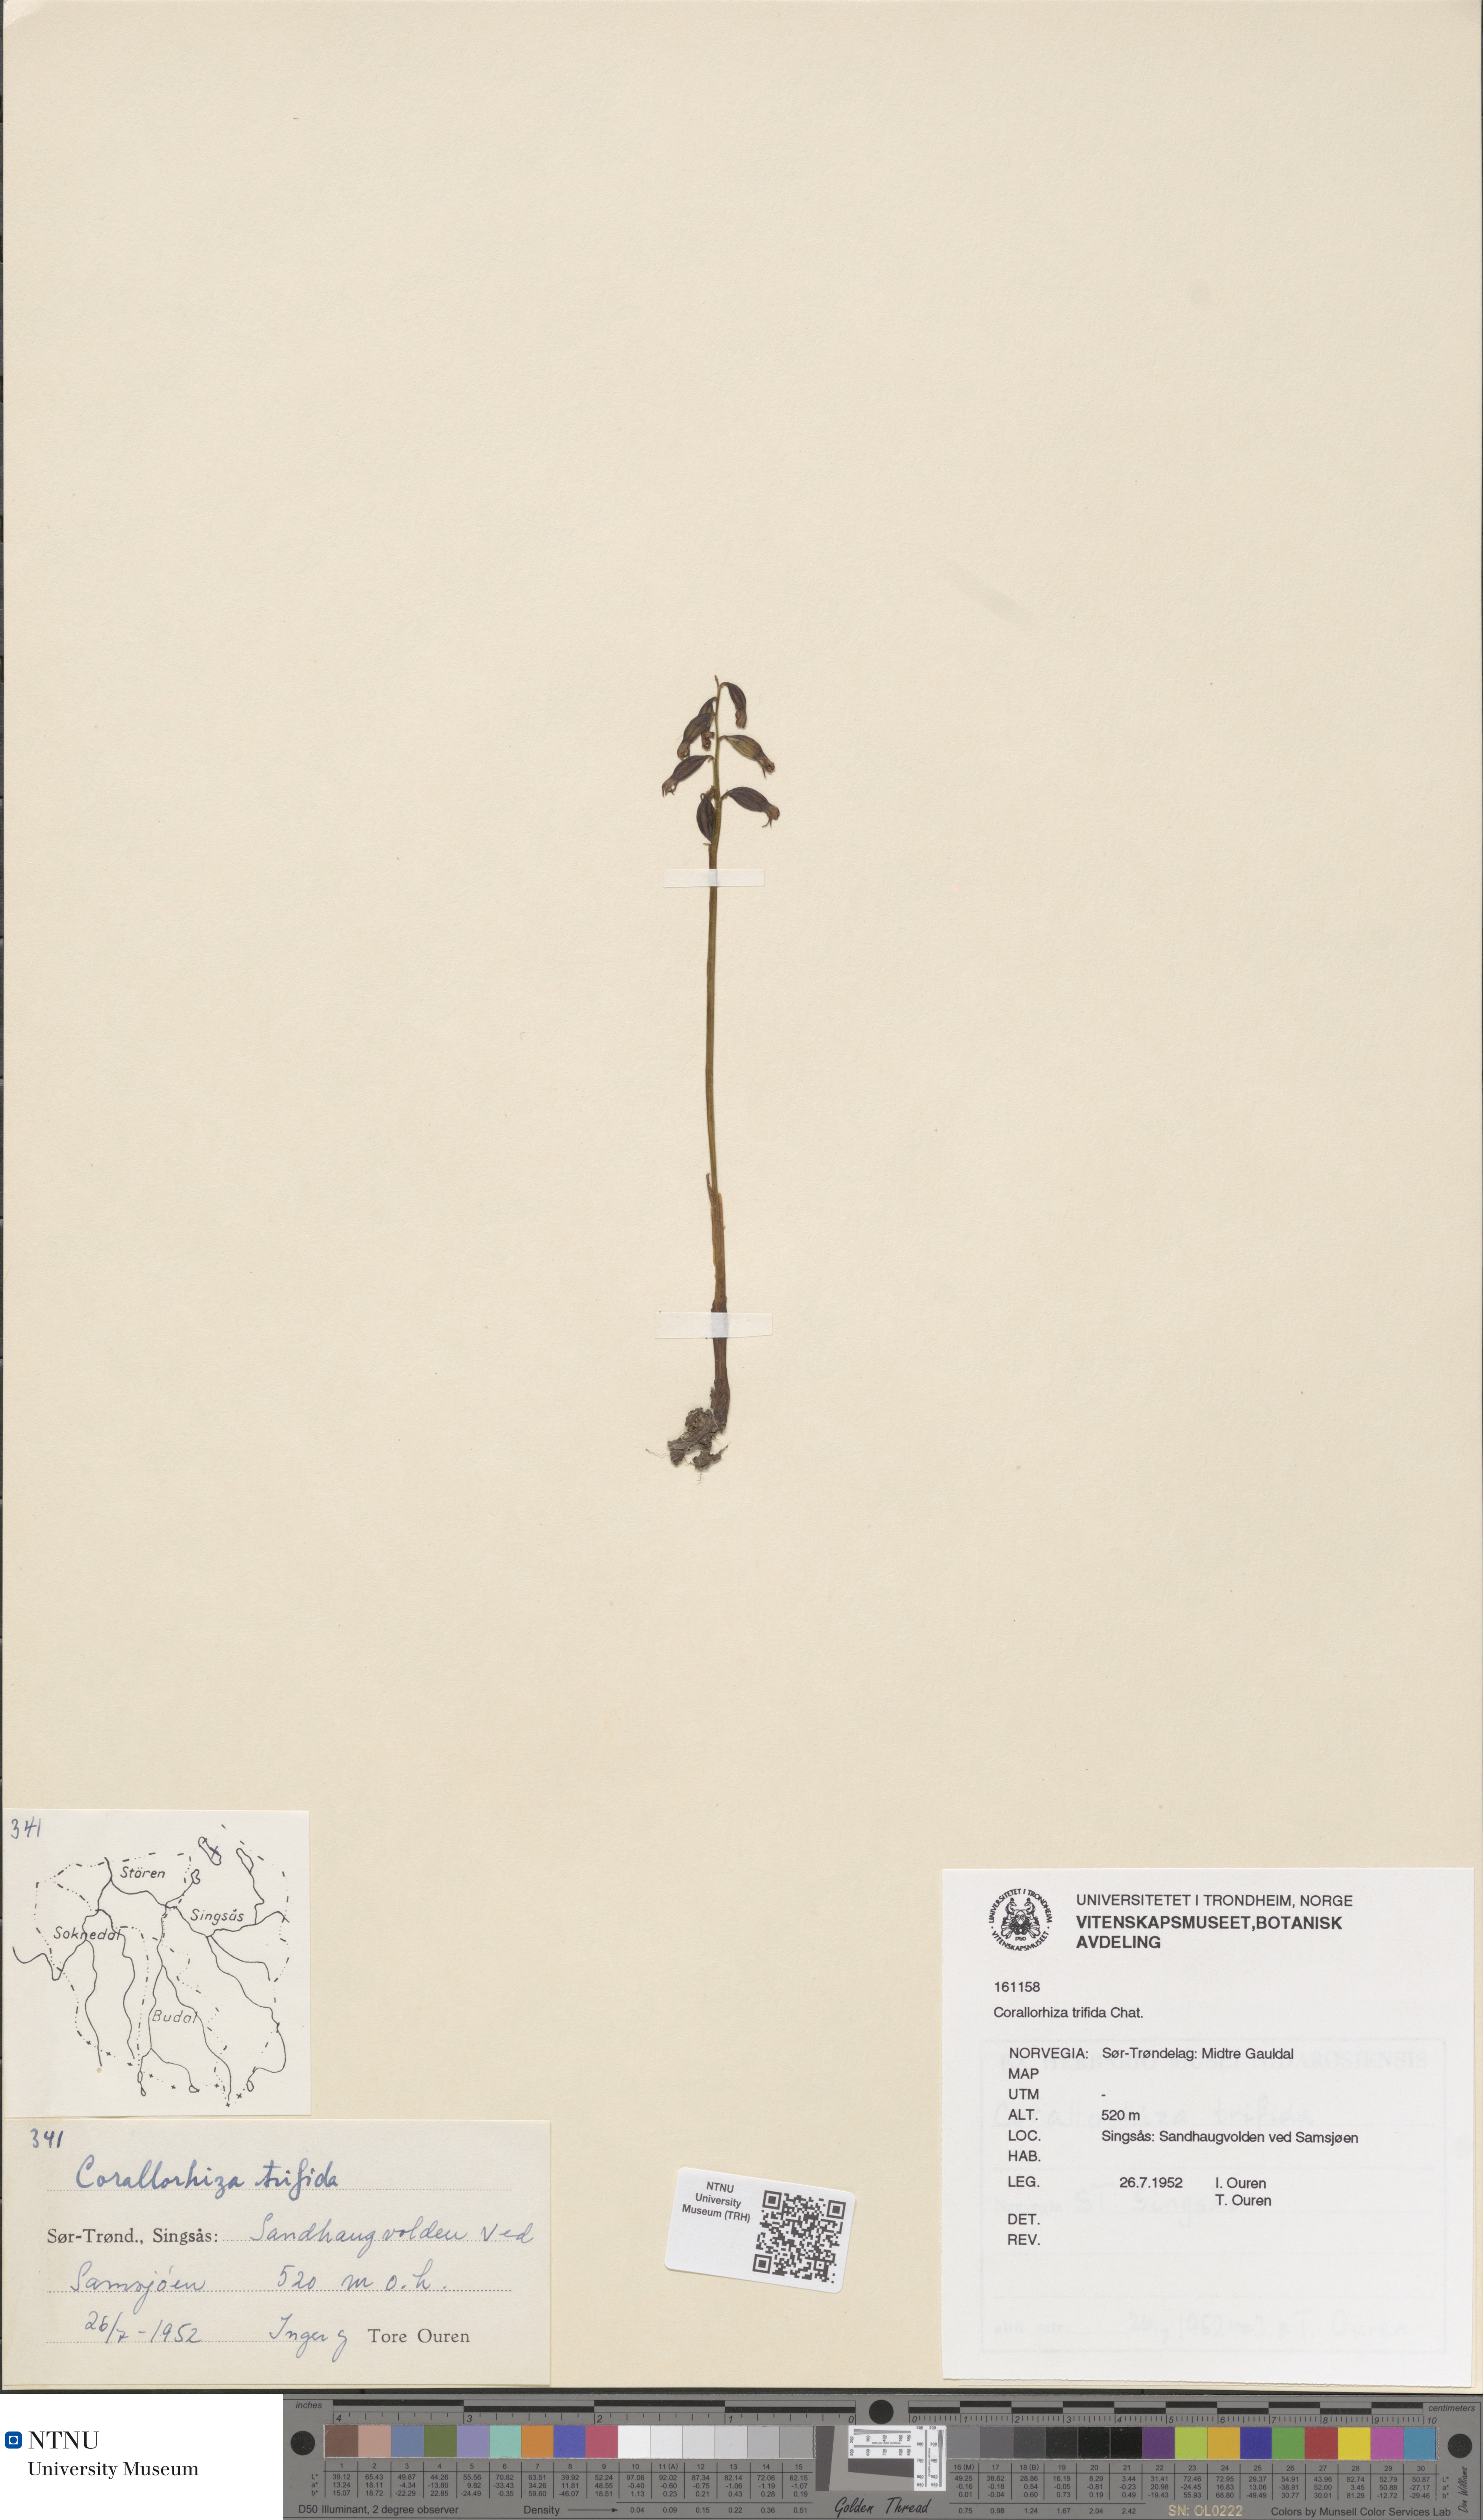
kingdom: Plantae
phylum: Tracheophyta
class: Liliopsida
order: Asparagales
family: Orchidaceae
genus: Corallorhiza
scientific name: Corallorhiza trifida
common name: Yellow coralroot
